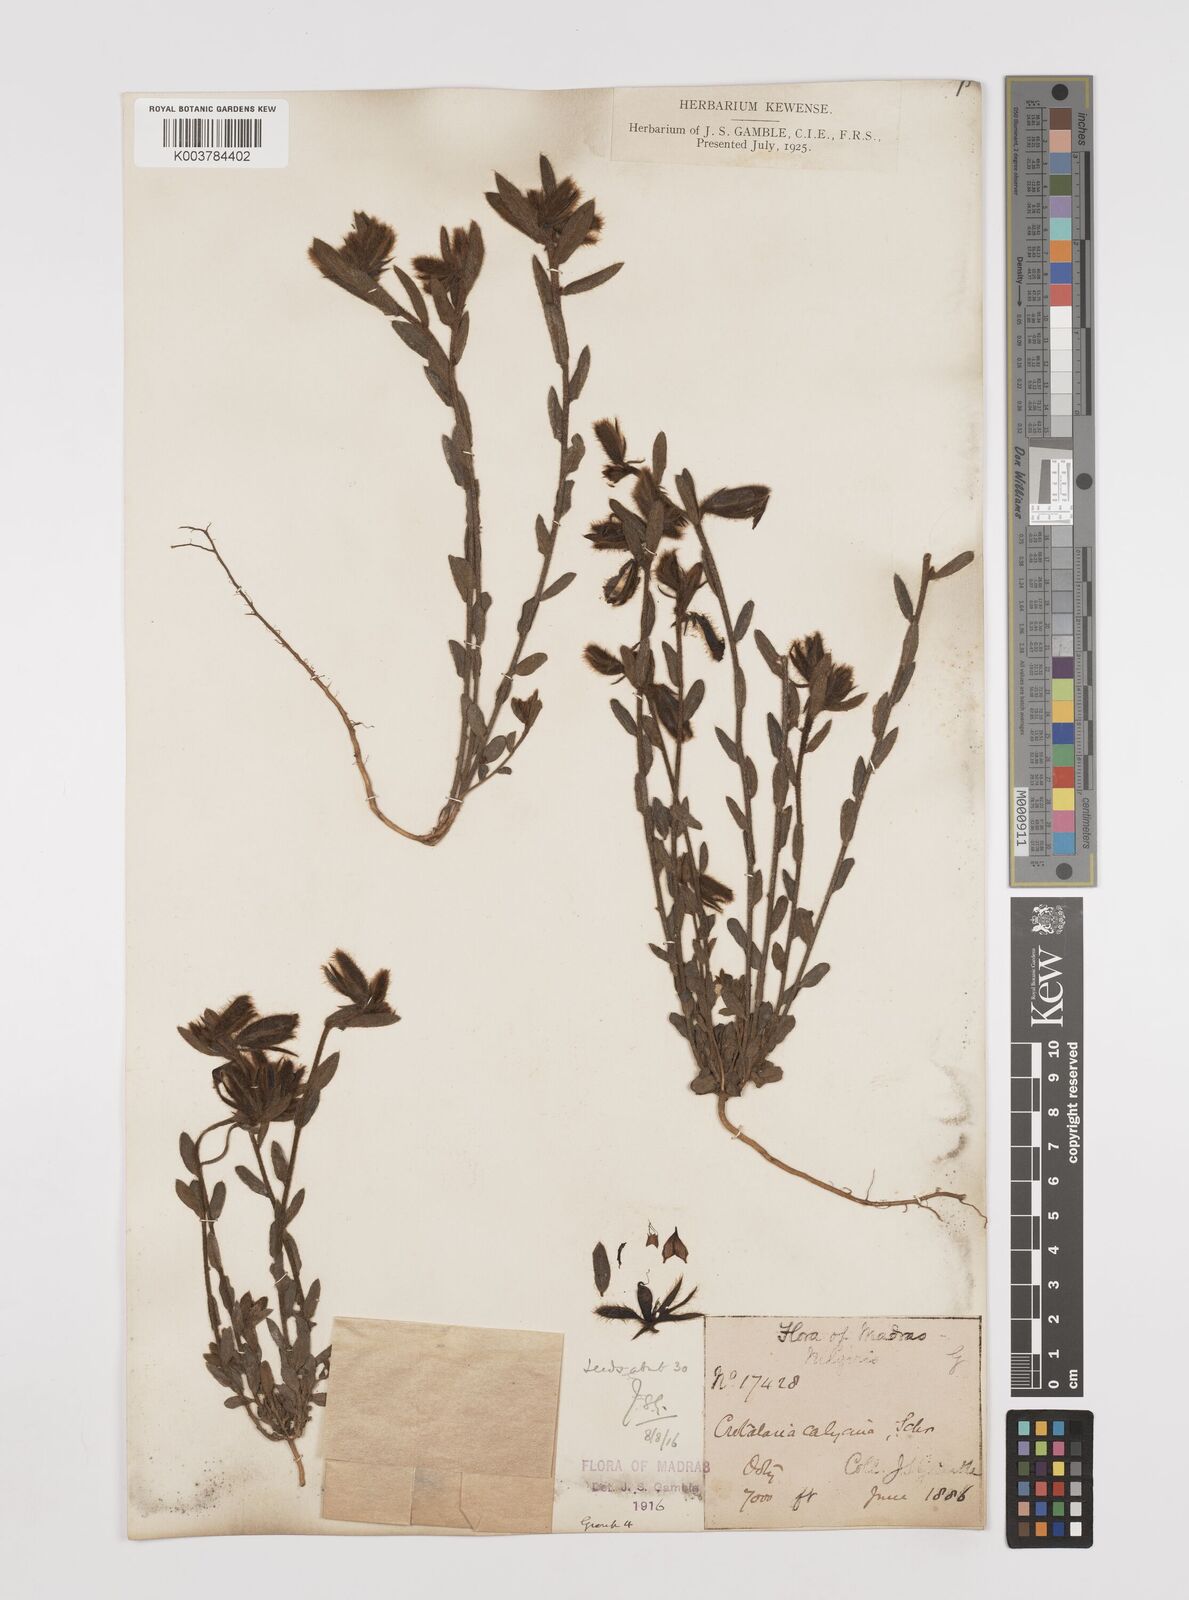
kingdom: Plantae
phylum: Tracheophyta
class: Magnoliopsida
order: Fabales
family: Fabaceae
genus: Crotalaria
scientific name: Crotalaria calycina
